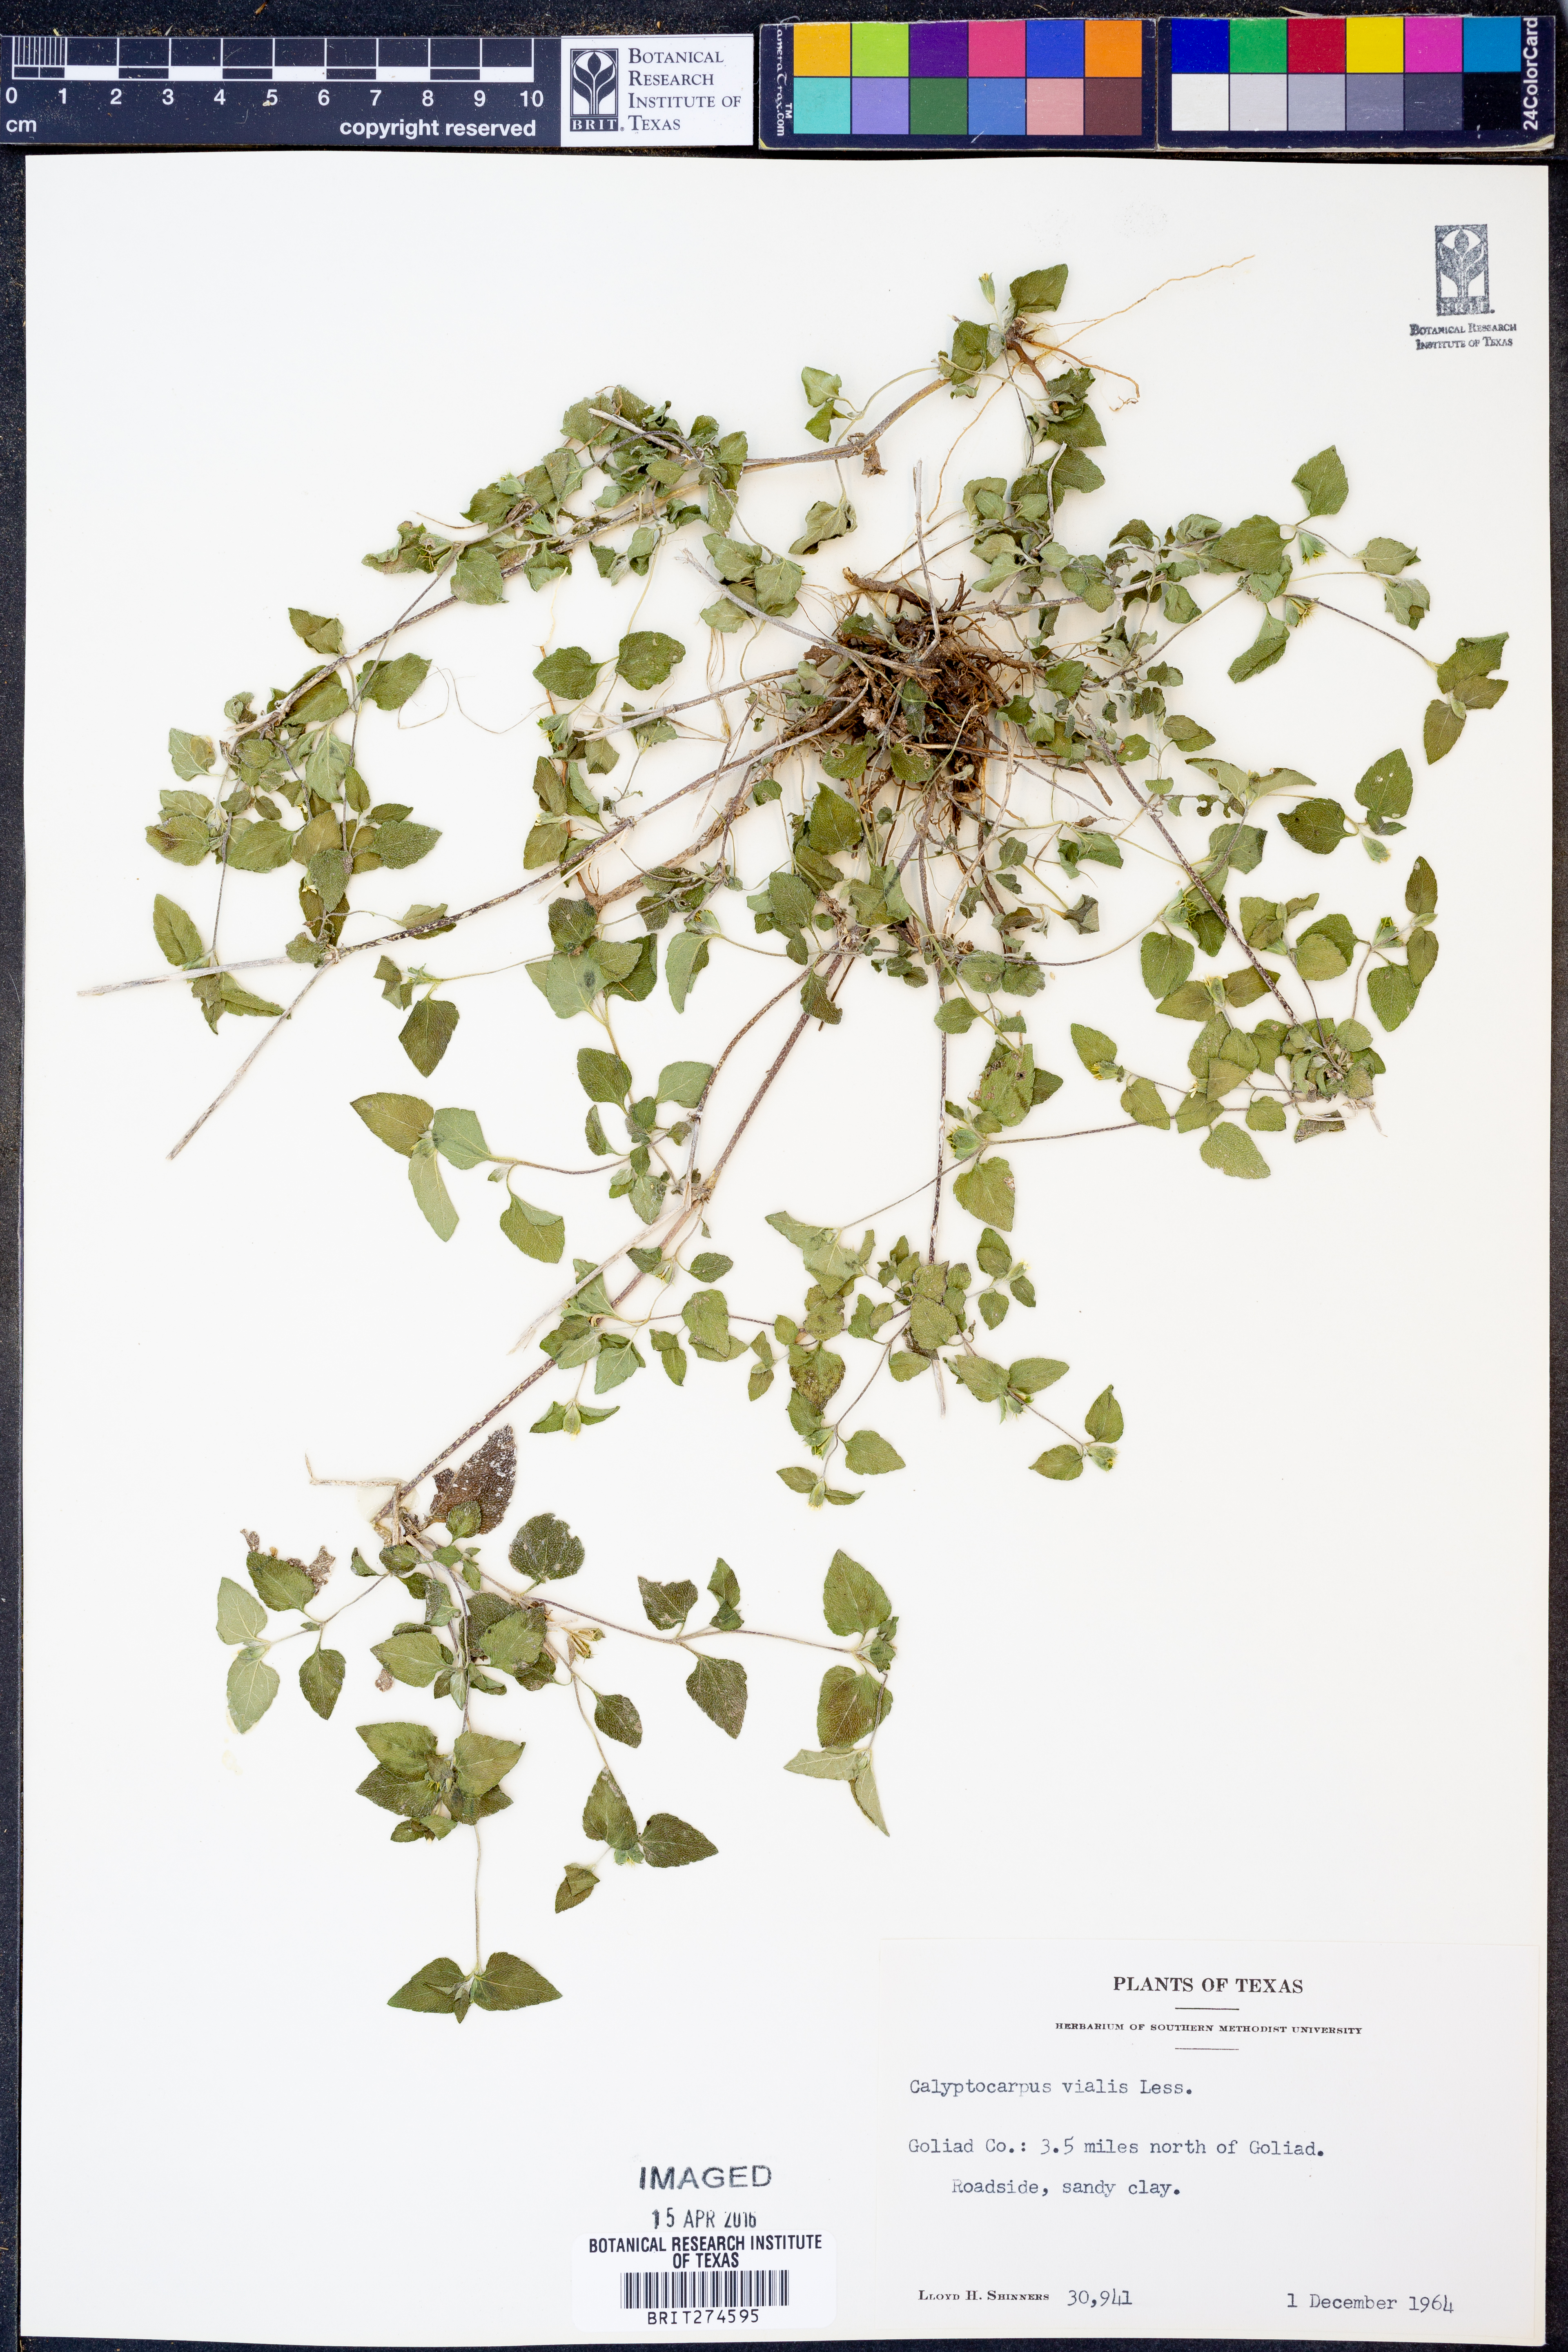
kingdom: Plantae
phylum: Tracheophyta
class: Magnoliopsida
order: Asterales
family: Asteraceae
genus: Calyptocarpus
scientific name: Calyptocarpus vialis
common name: Straggler daisy
